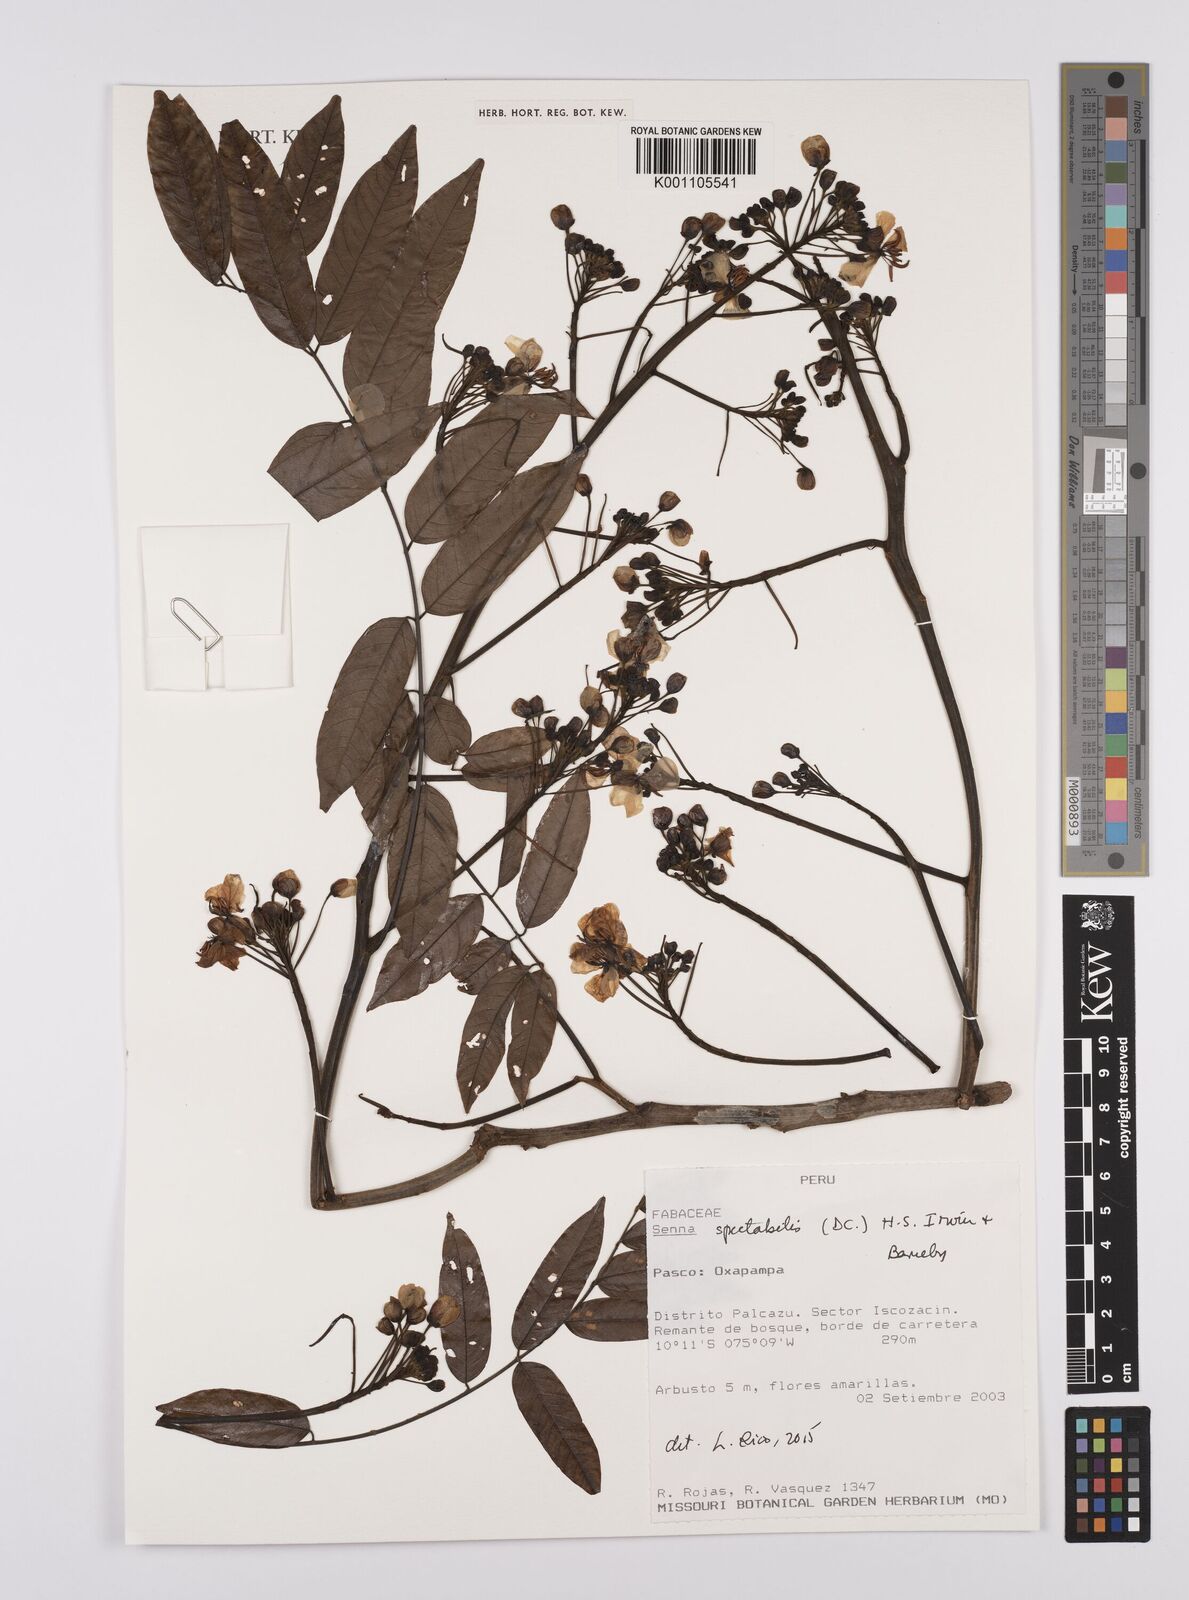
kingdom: Plantae
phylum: Tracheophyta
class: Magnoliopsida
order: Fabales
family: Fabaceae
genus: Senna
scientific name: Senna spectabilis
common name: Casia amarilla
